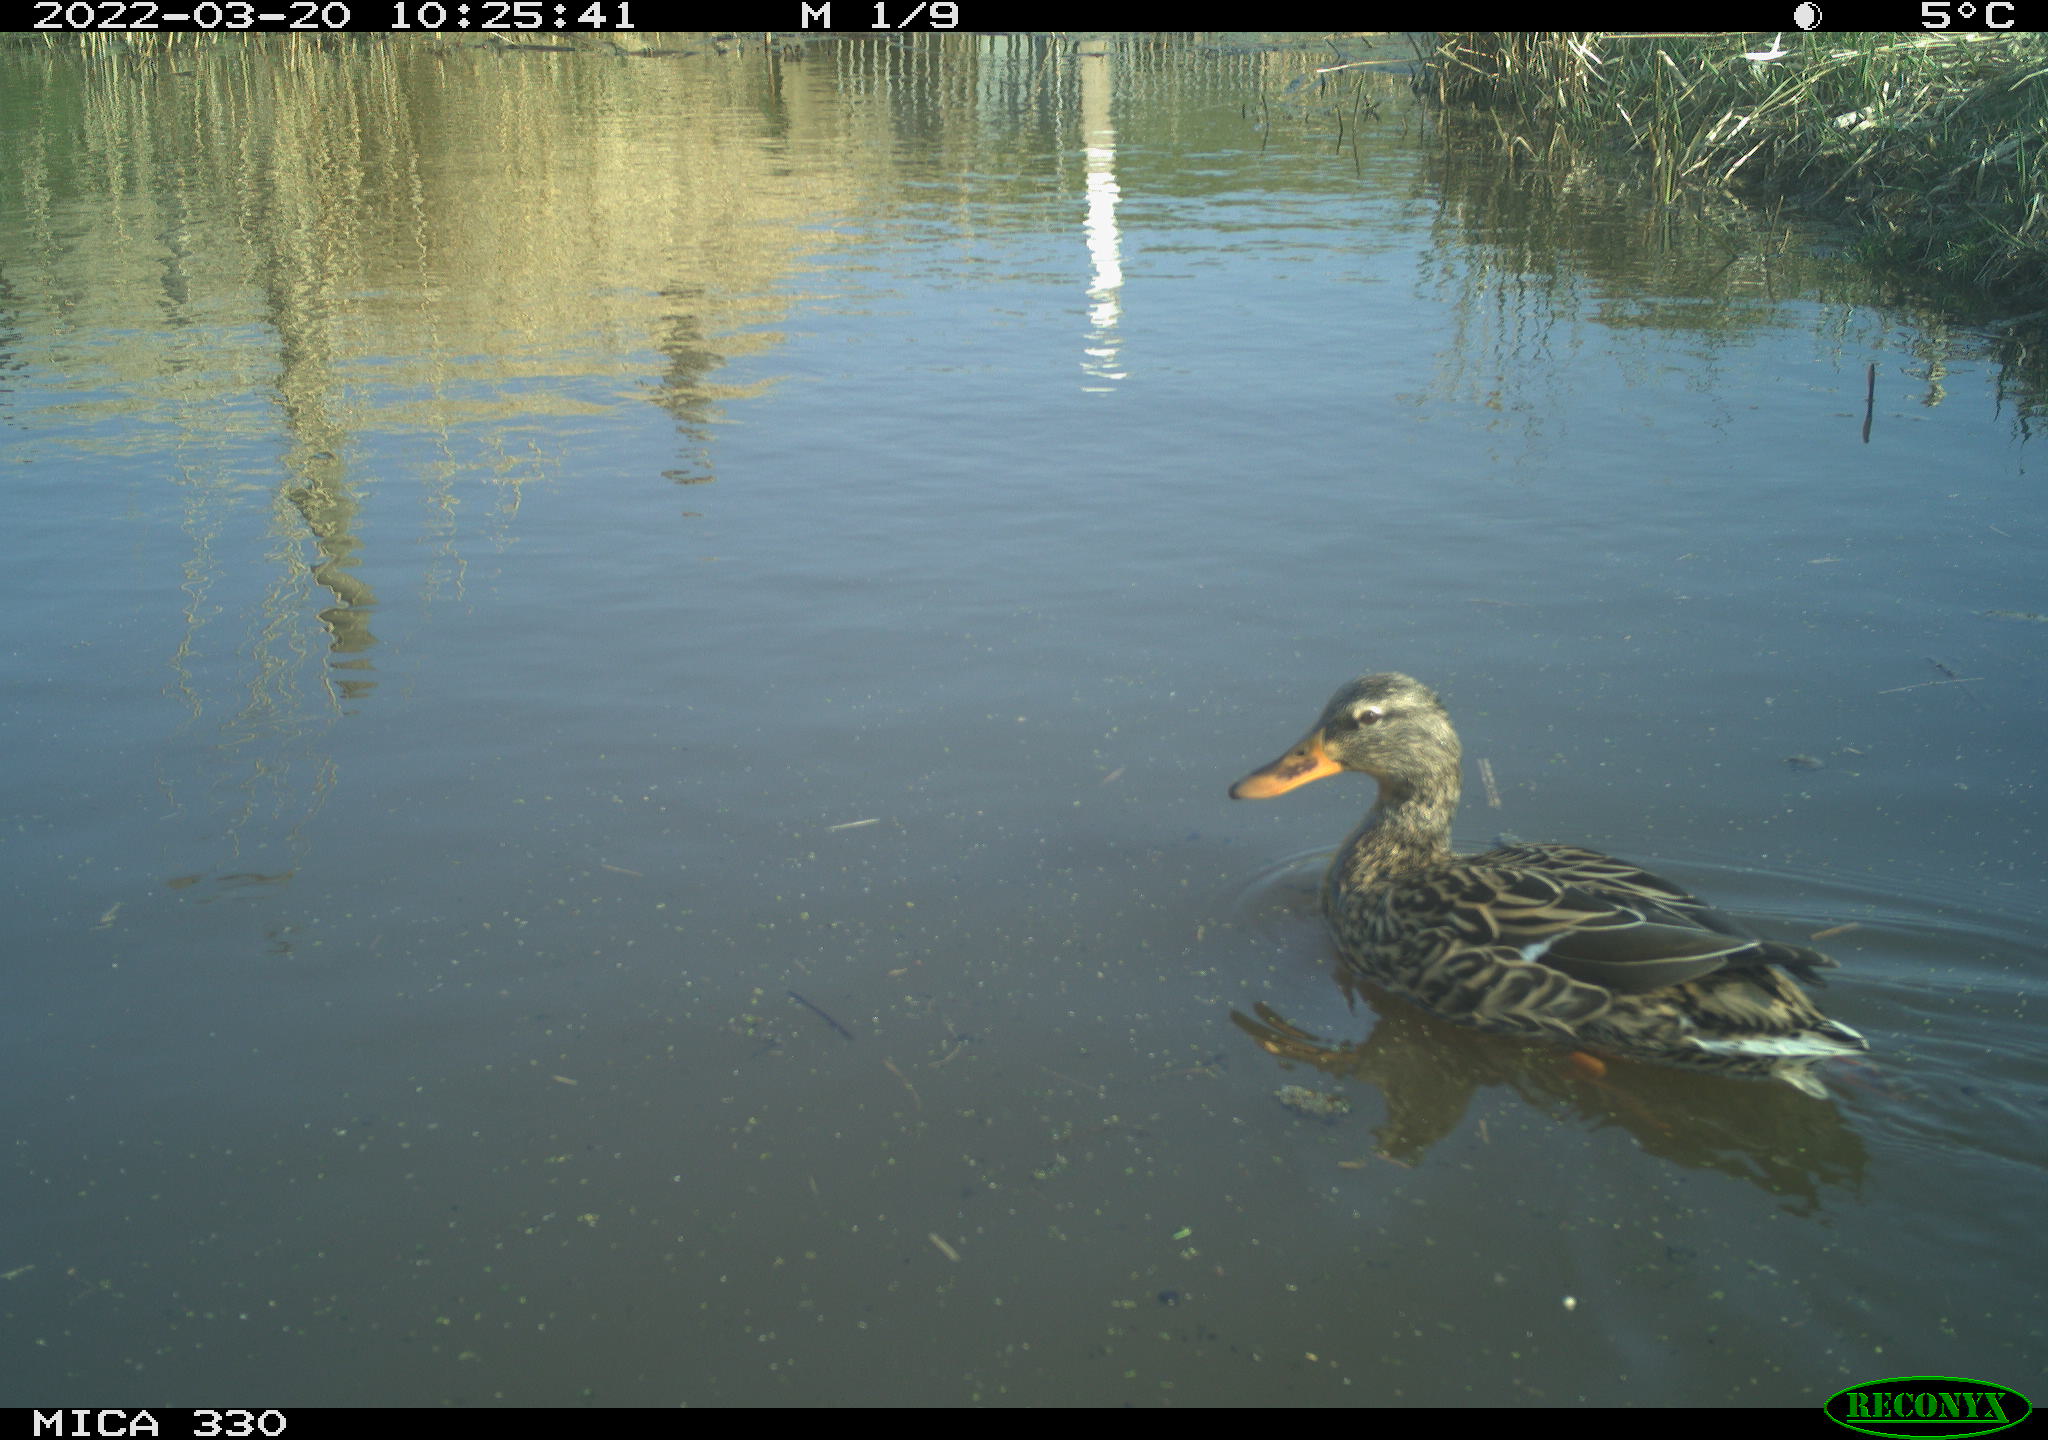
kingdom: Animalia
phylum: Chordata
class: Aves
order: Anseriformes
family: Anatidae
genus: Anas
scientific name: Anas platyrhynchos
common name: Mallard
